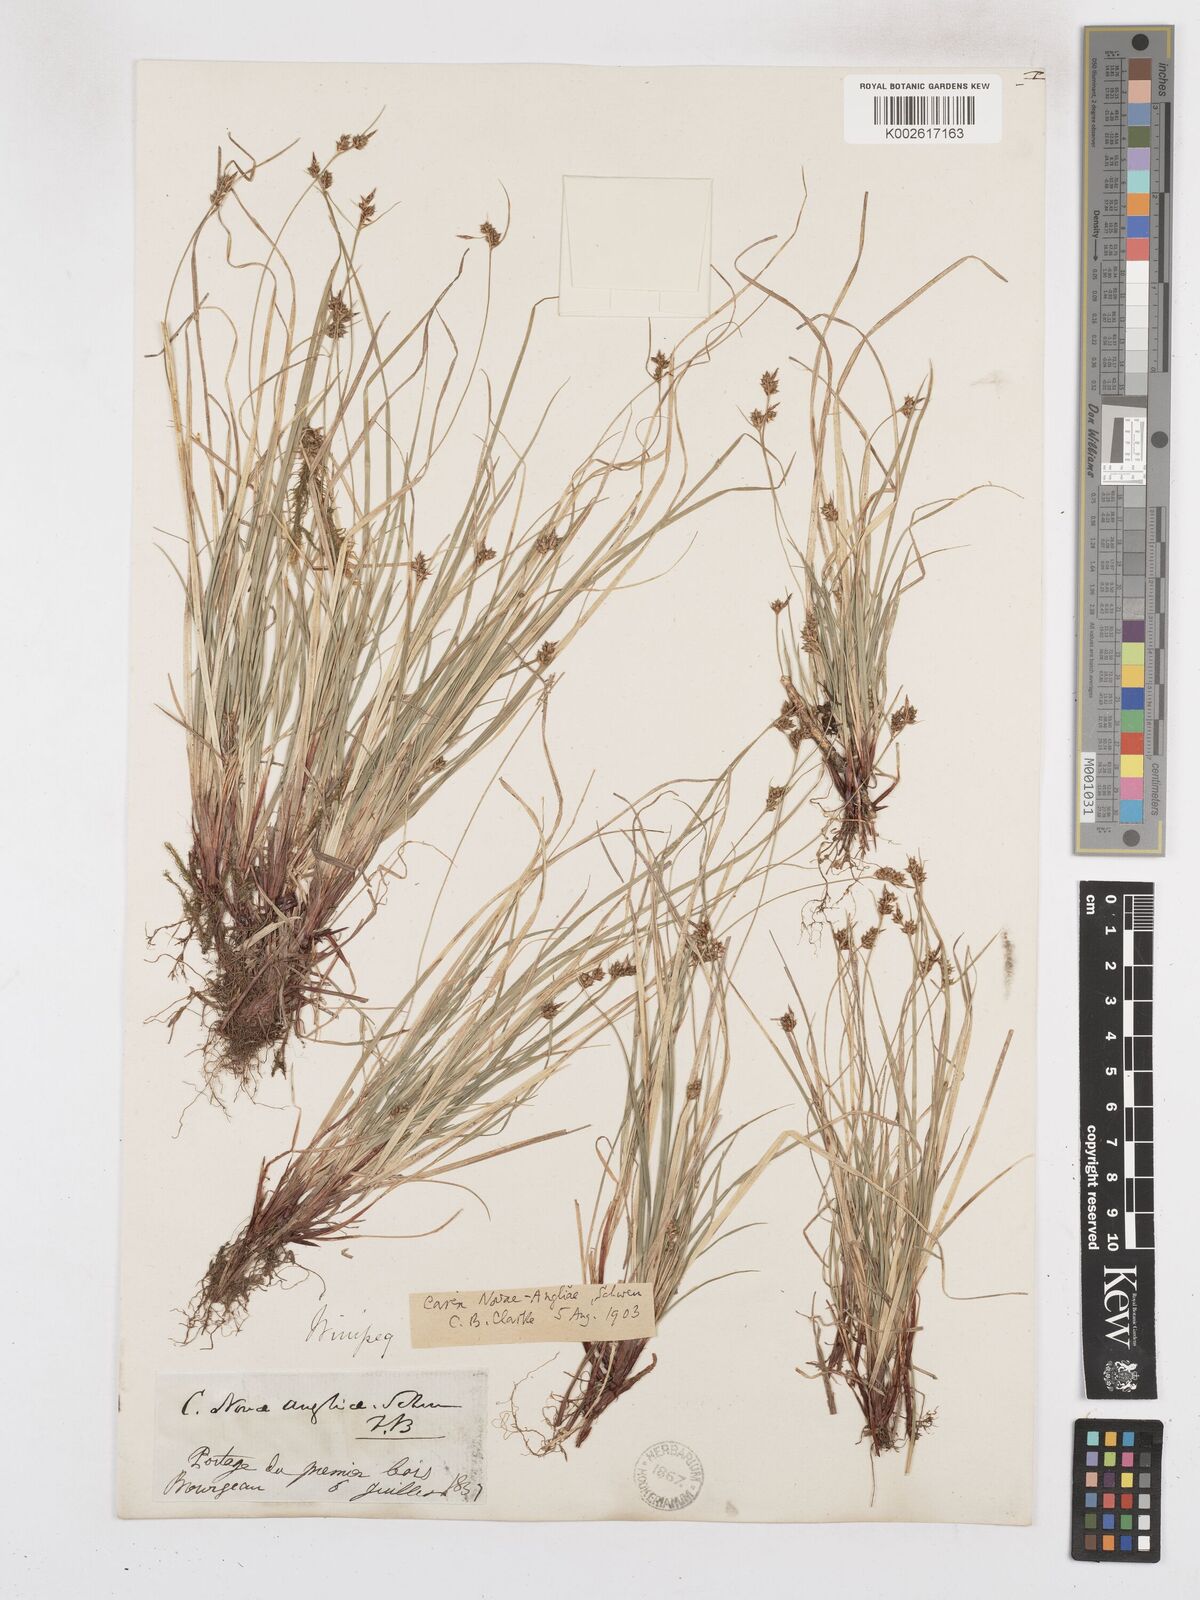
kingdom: Plantae
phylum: Tracheophyta
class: Liliopsida
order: Poales
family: Cyperaceae
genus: Carex
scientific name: Carex novae-angliae
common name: New england sedge
